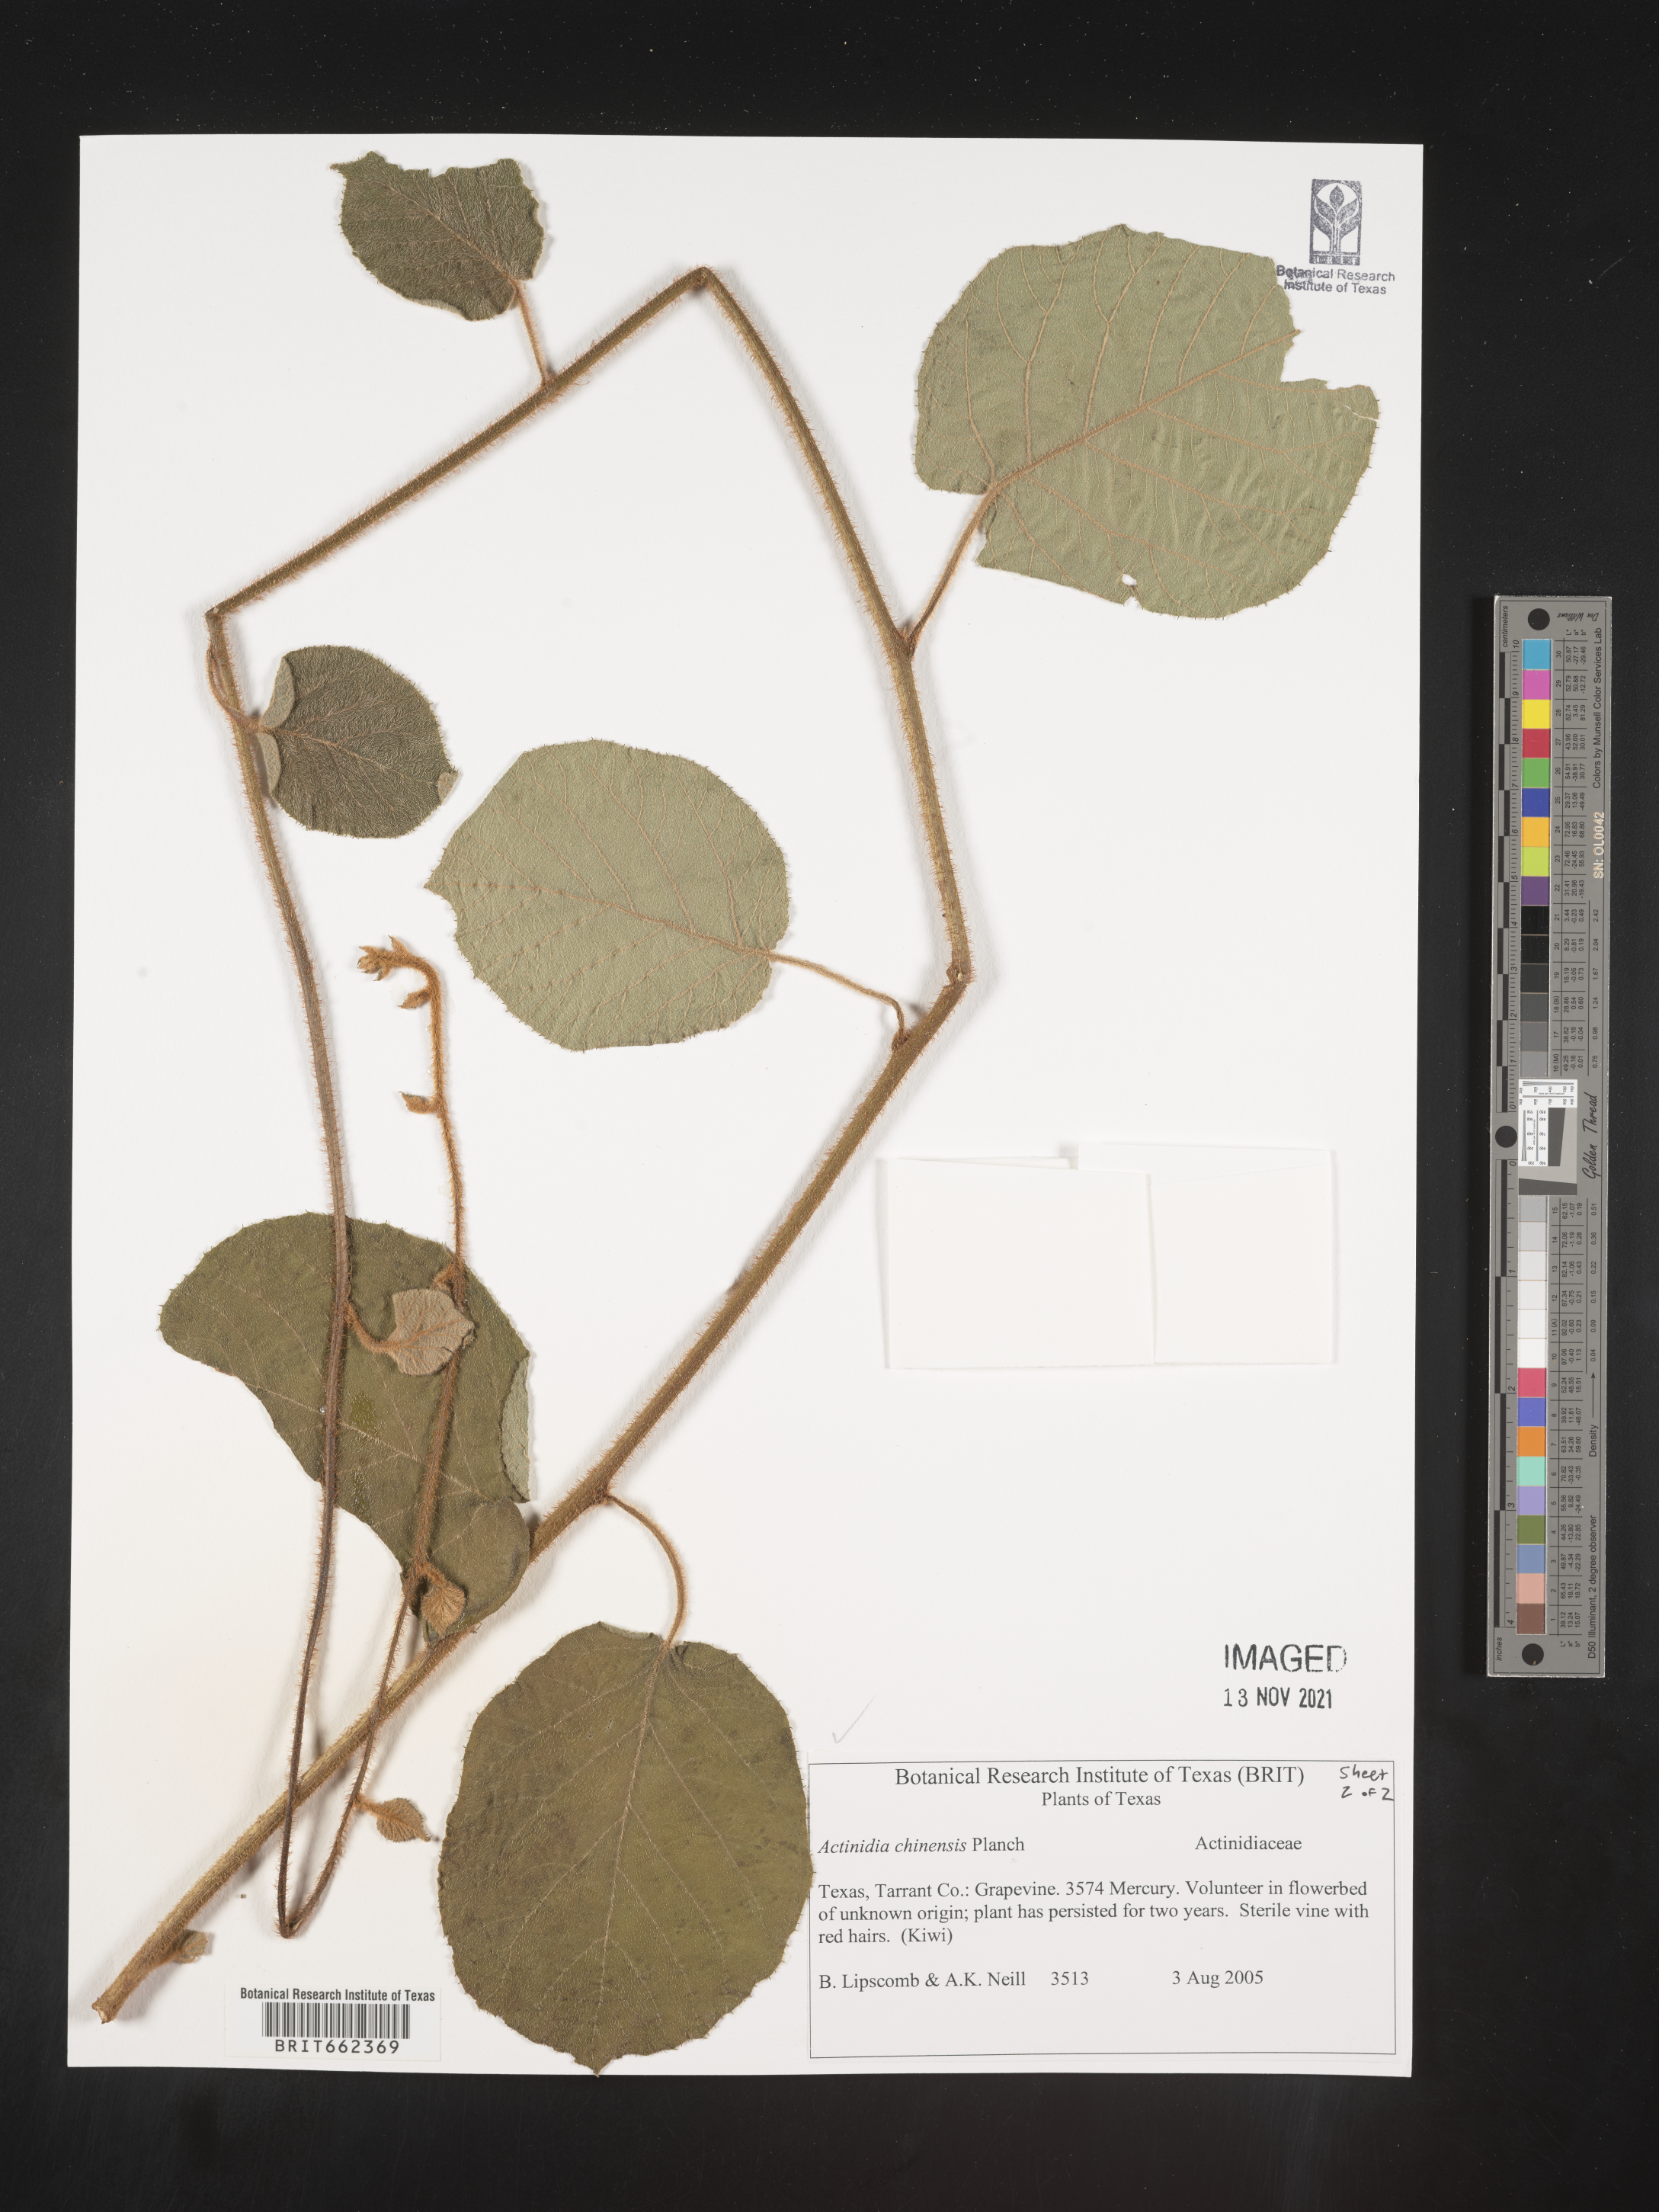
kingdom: Plantae
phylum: Tracheophyta
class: Magnoliopsida
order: Ericales
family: Actinidiaceae
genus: Actinidia
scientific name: Actinidia
